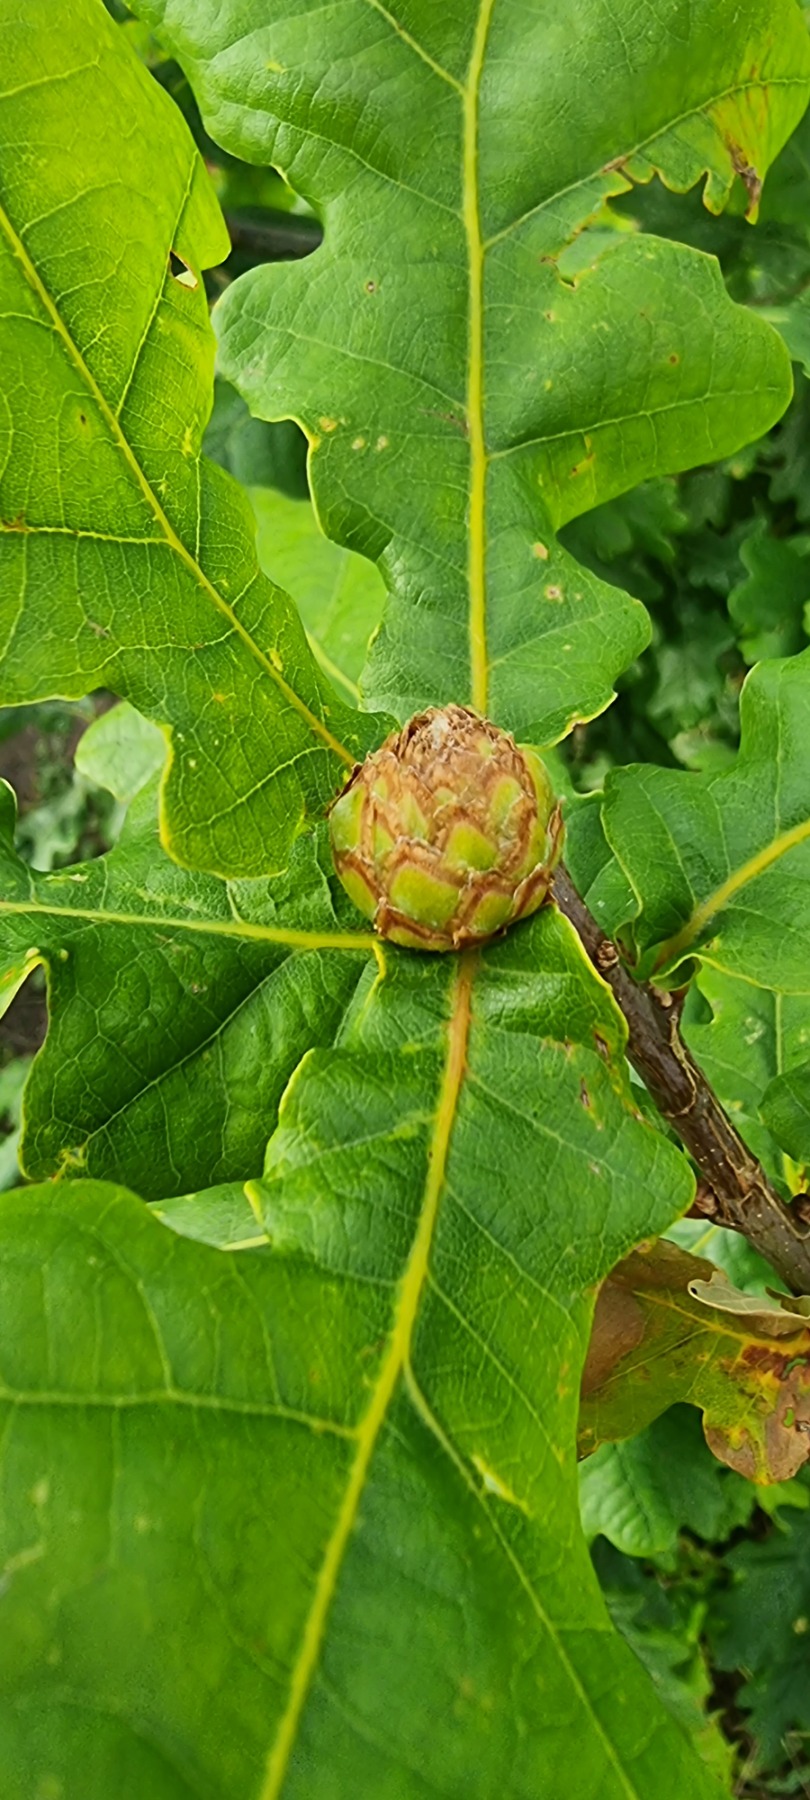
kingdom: Animalia
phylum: Arthropoda
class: Insecta
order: Hymenoptera
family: Cynipidae
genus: Andricus
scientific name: Andricus foecundatrix
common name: Artiskokgalhveps
